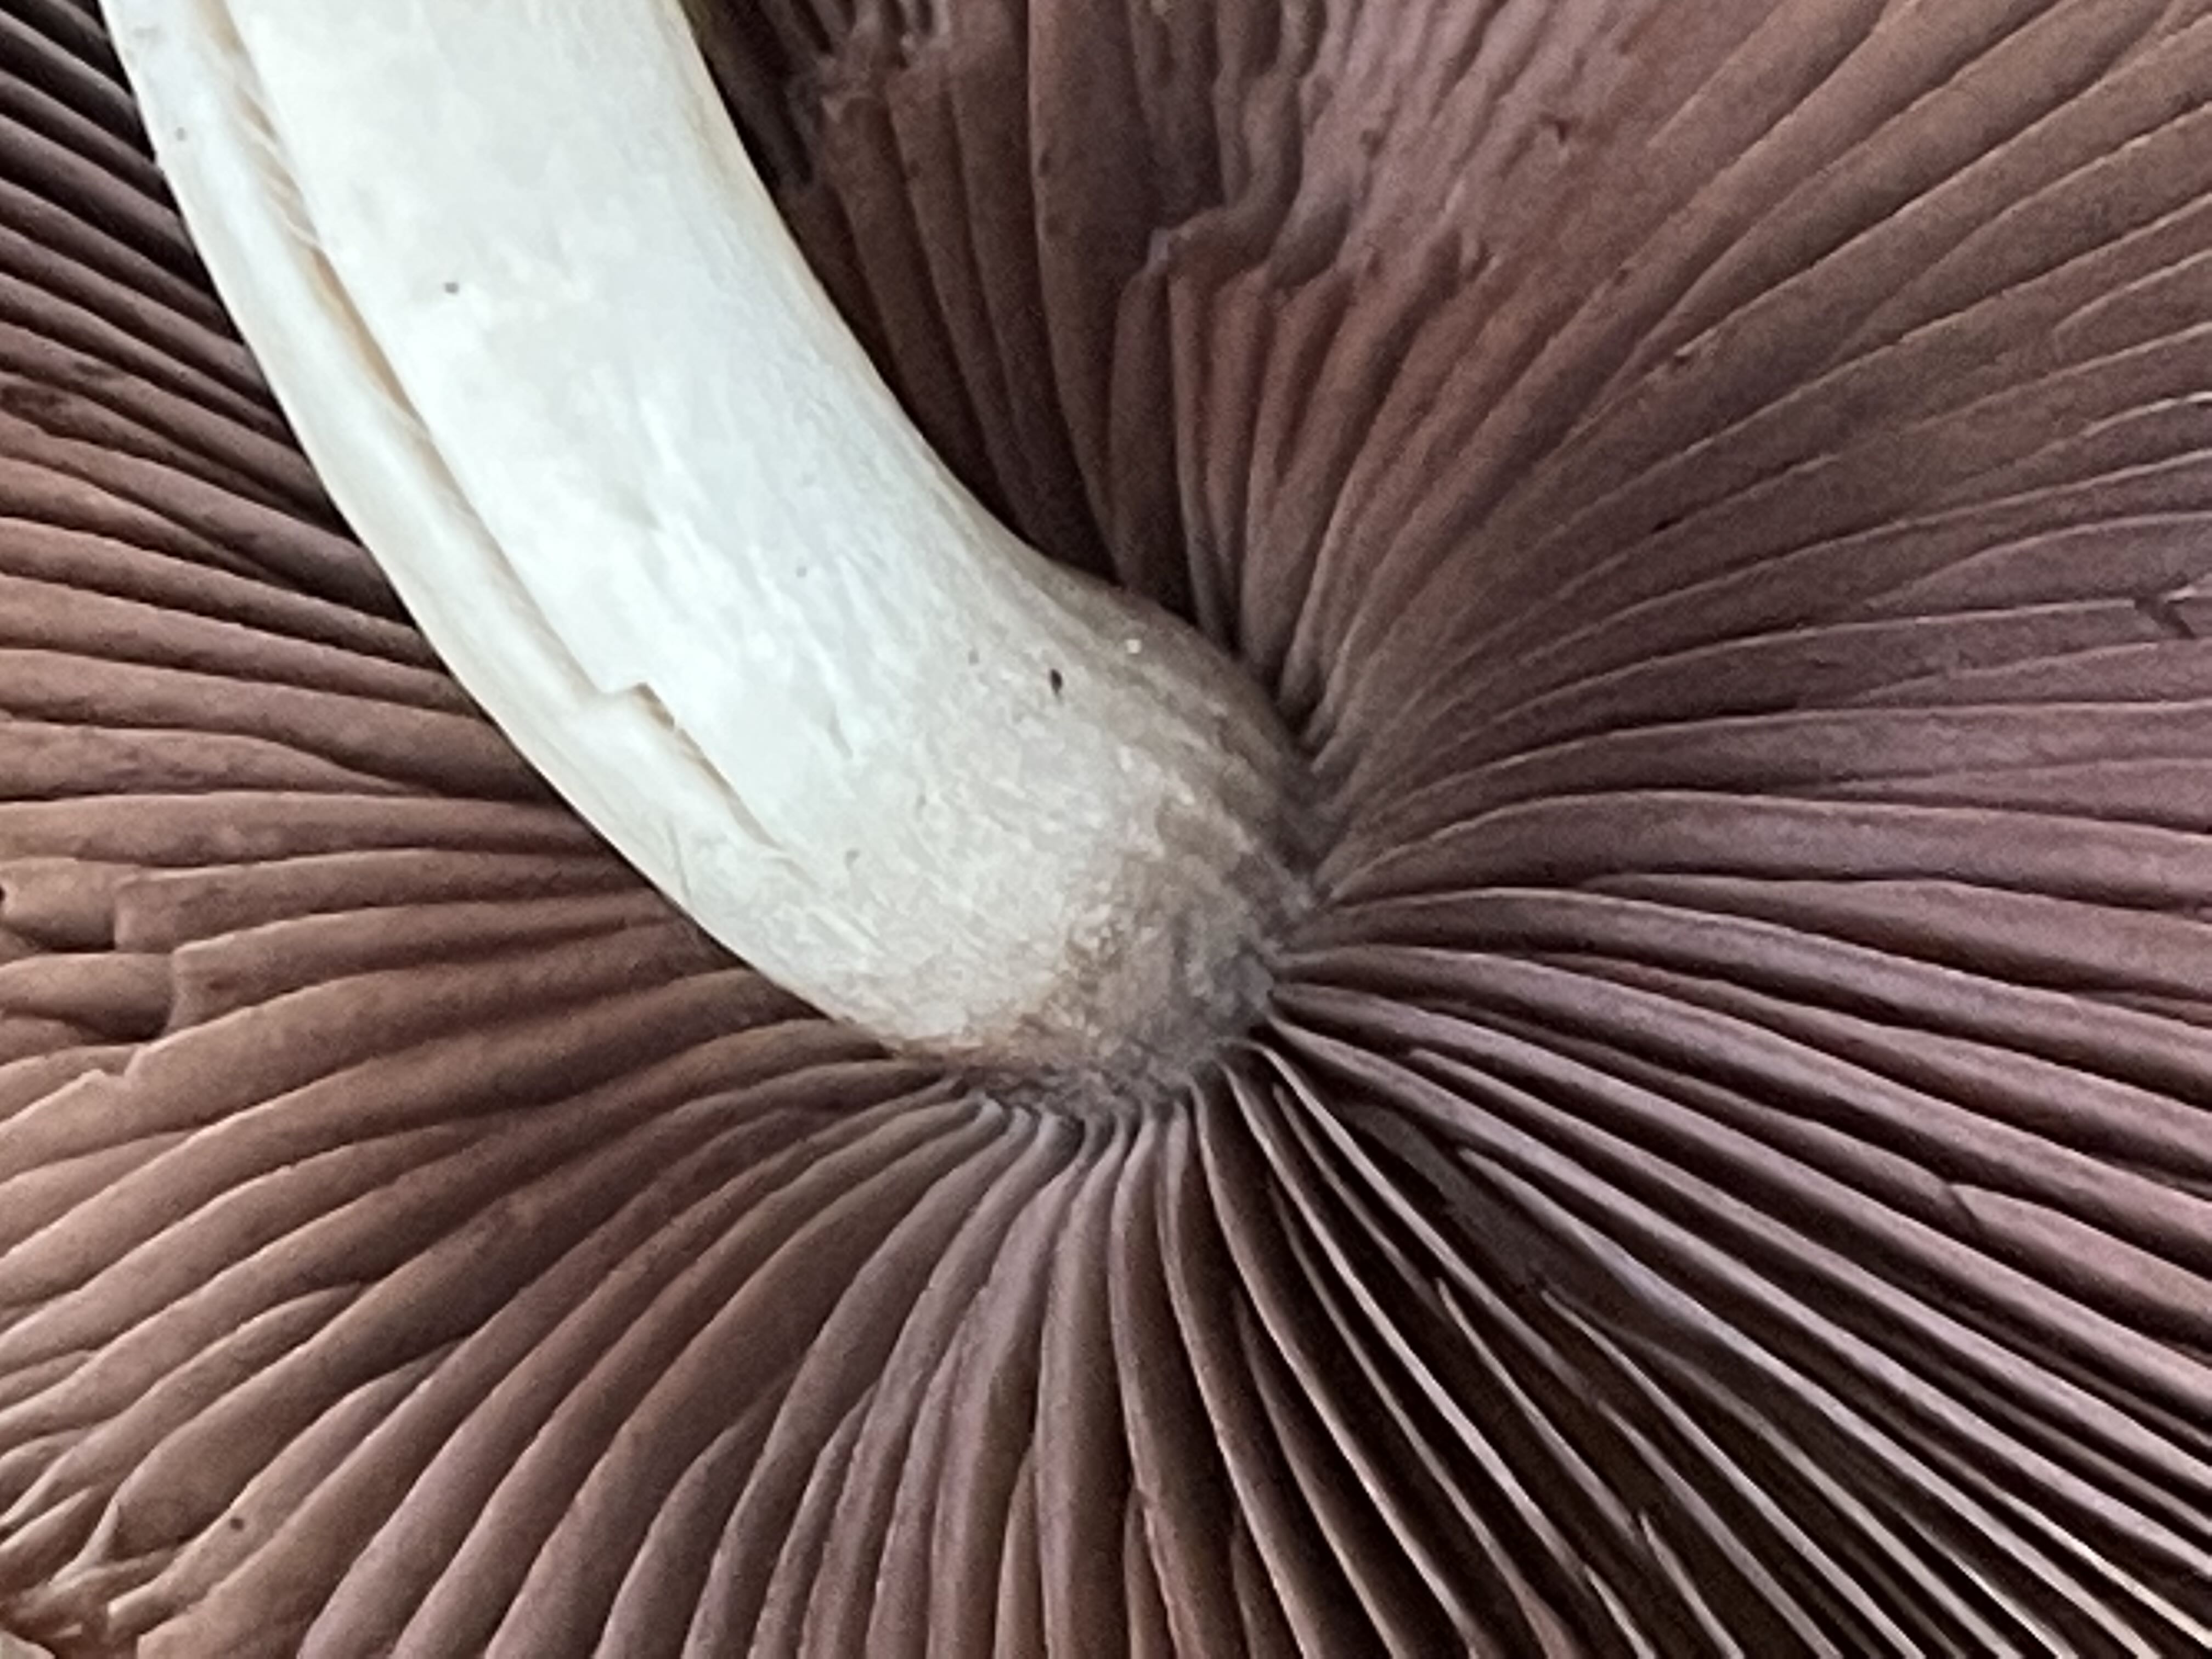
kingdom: Fungi
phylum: Basidiomycota
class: Agaricomycetes
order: Agaricales
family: Psathyrellaceae
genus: Psathyrella
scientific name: Psathyrella piluliformis
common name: lysstokket mørkhat
